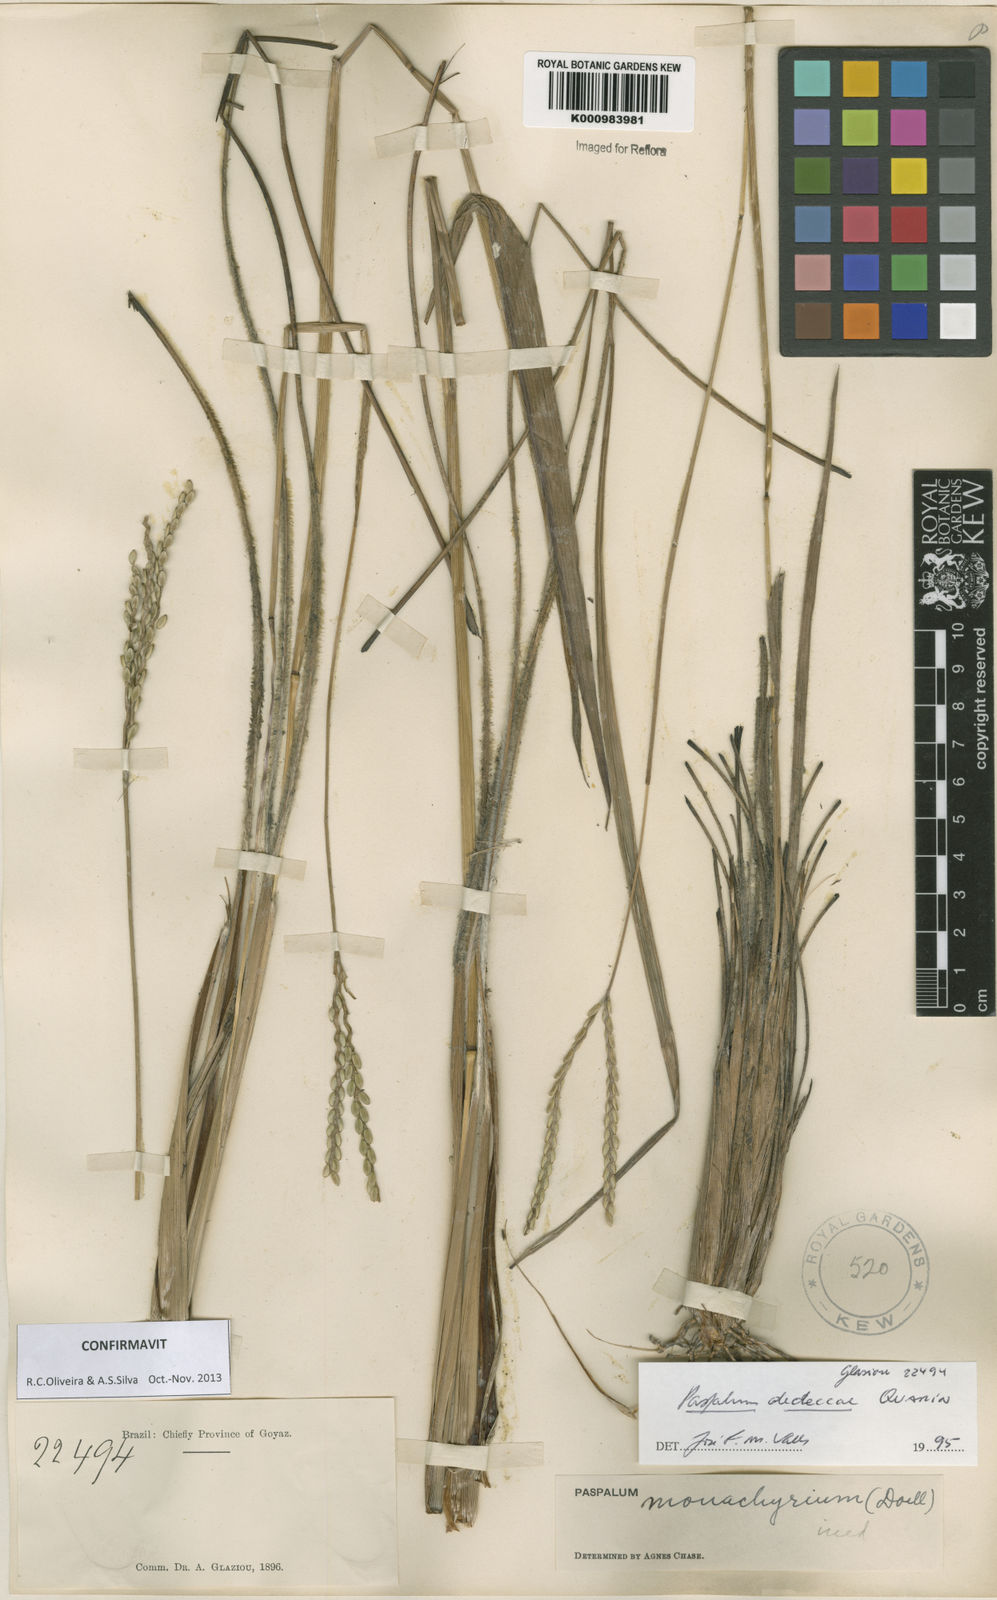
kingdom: Plantae
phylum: Tracheophyta
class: Liliopsida
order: Poales
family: Poaceae
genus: Paspalum
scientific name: Paspalum dedeccae
